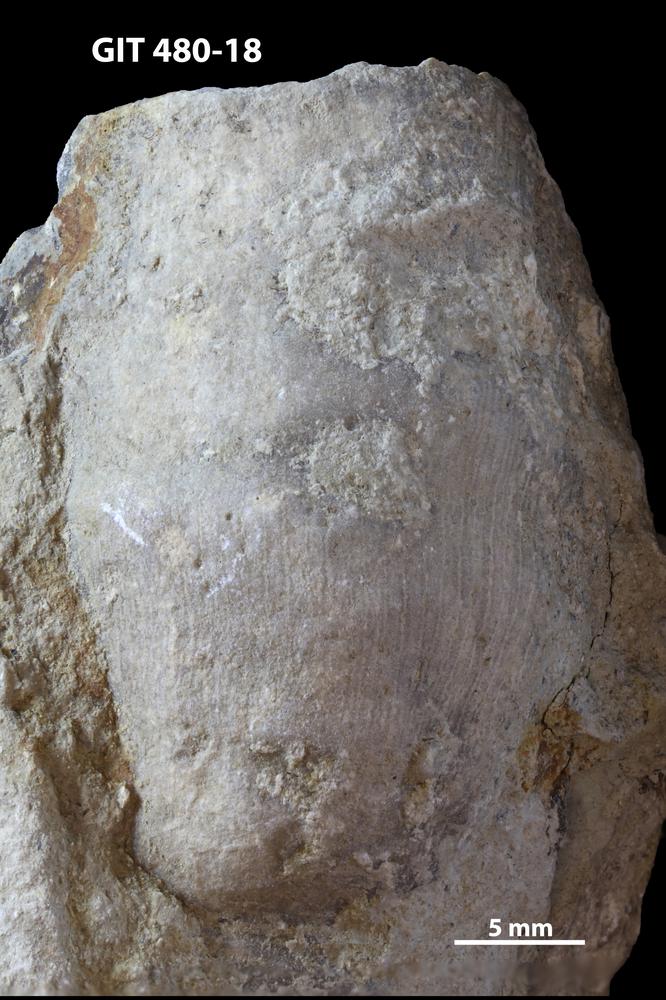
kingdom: Animalia
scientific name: Animalia
